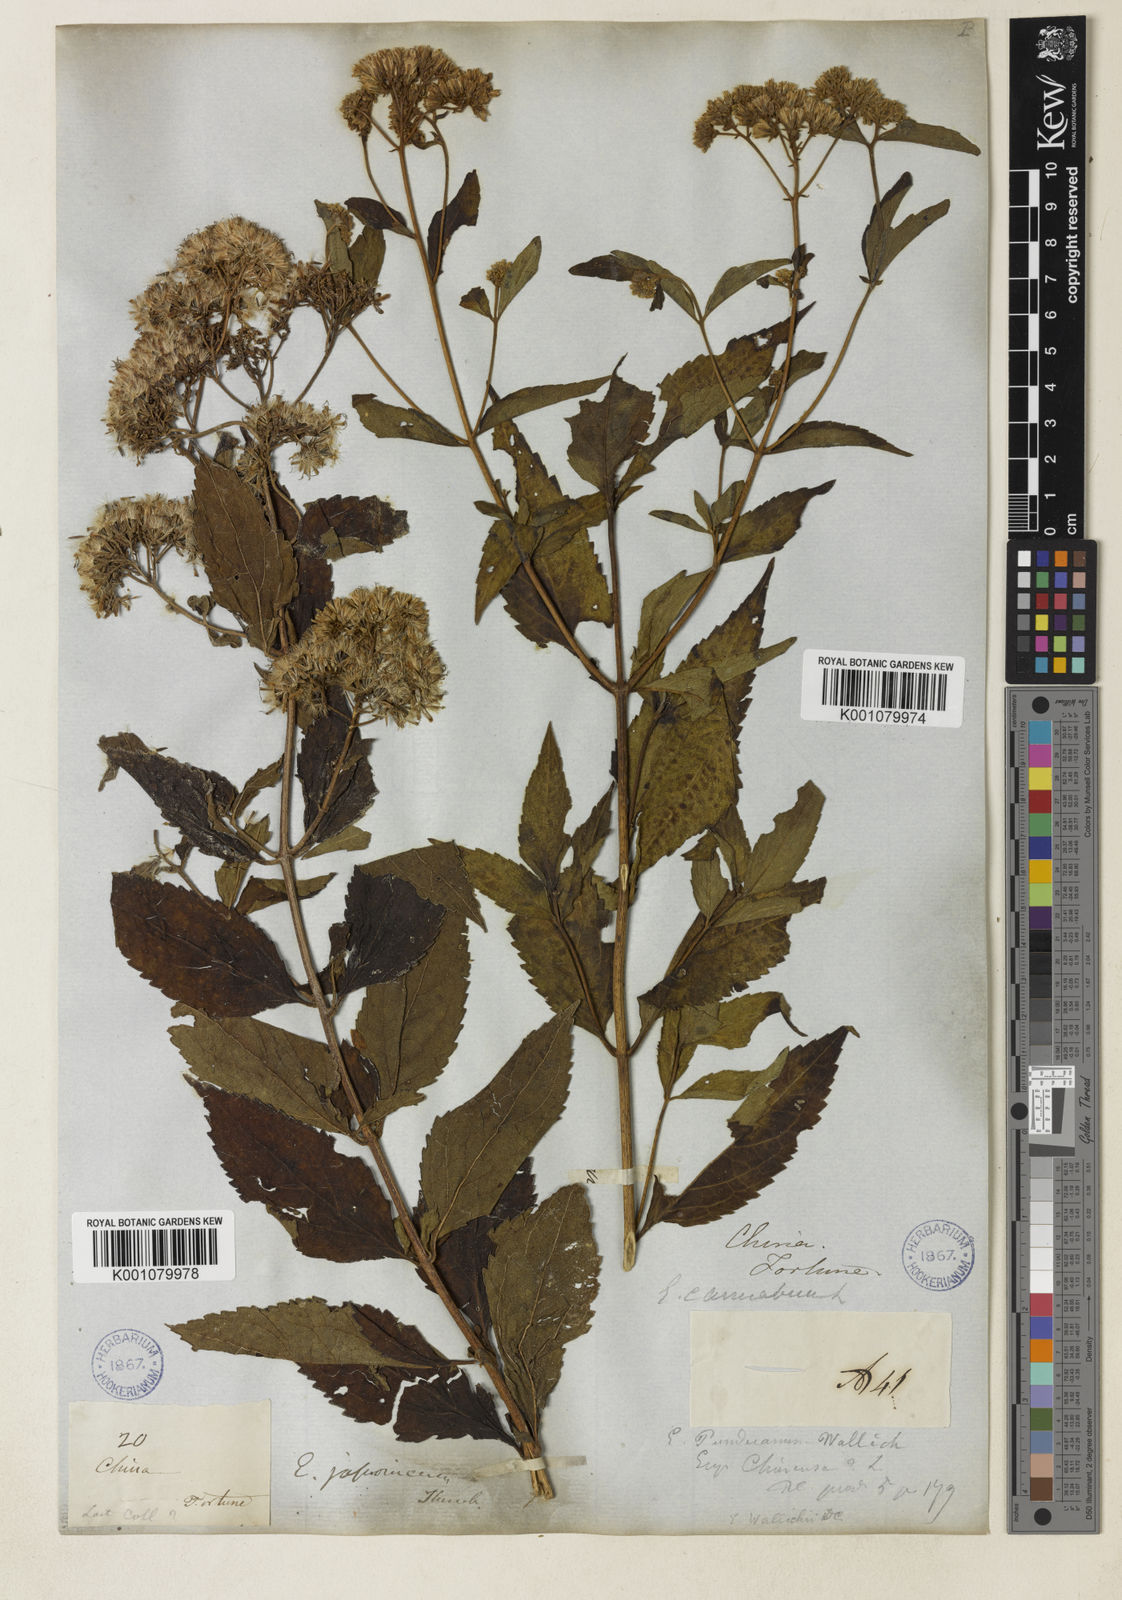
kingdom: Plantae
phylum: Tracheophyta
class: Magnoliopsida
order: Asterales
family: Asteraceae
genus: Eupatorium
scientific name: Eupatorium japonicum
